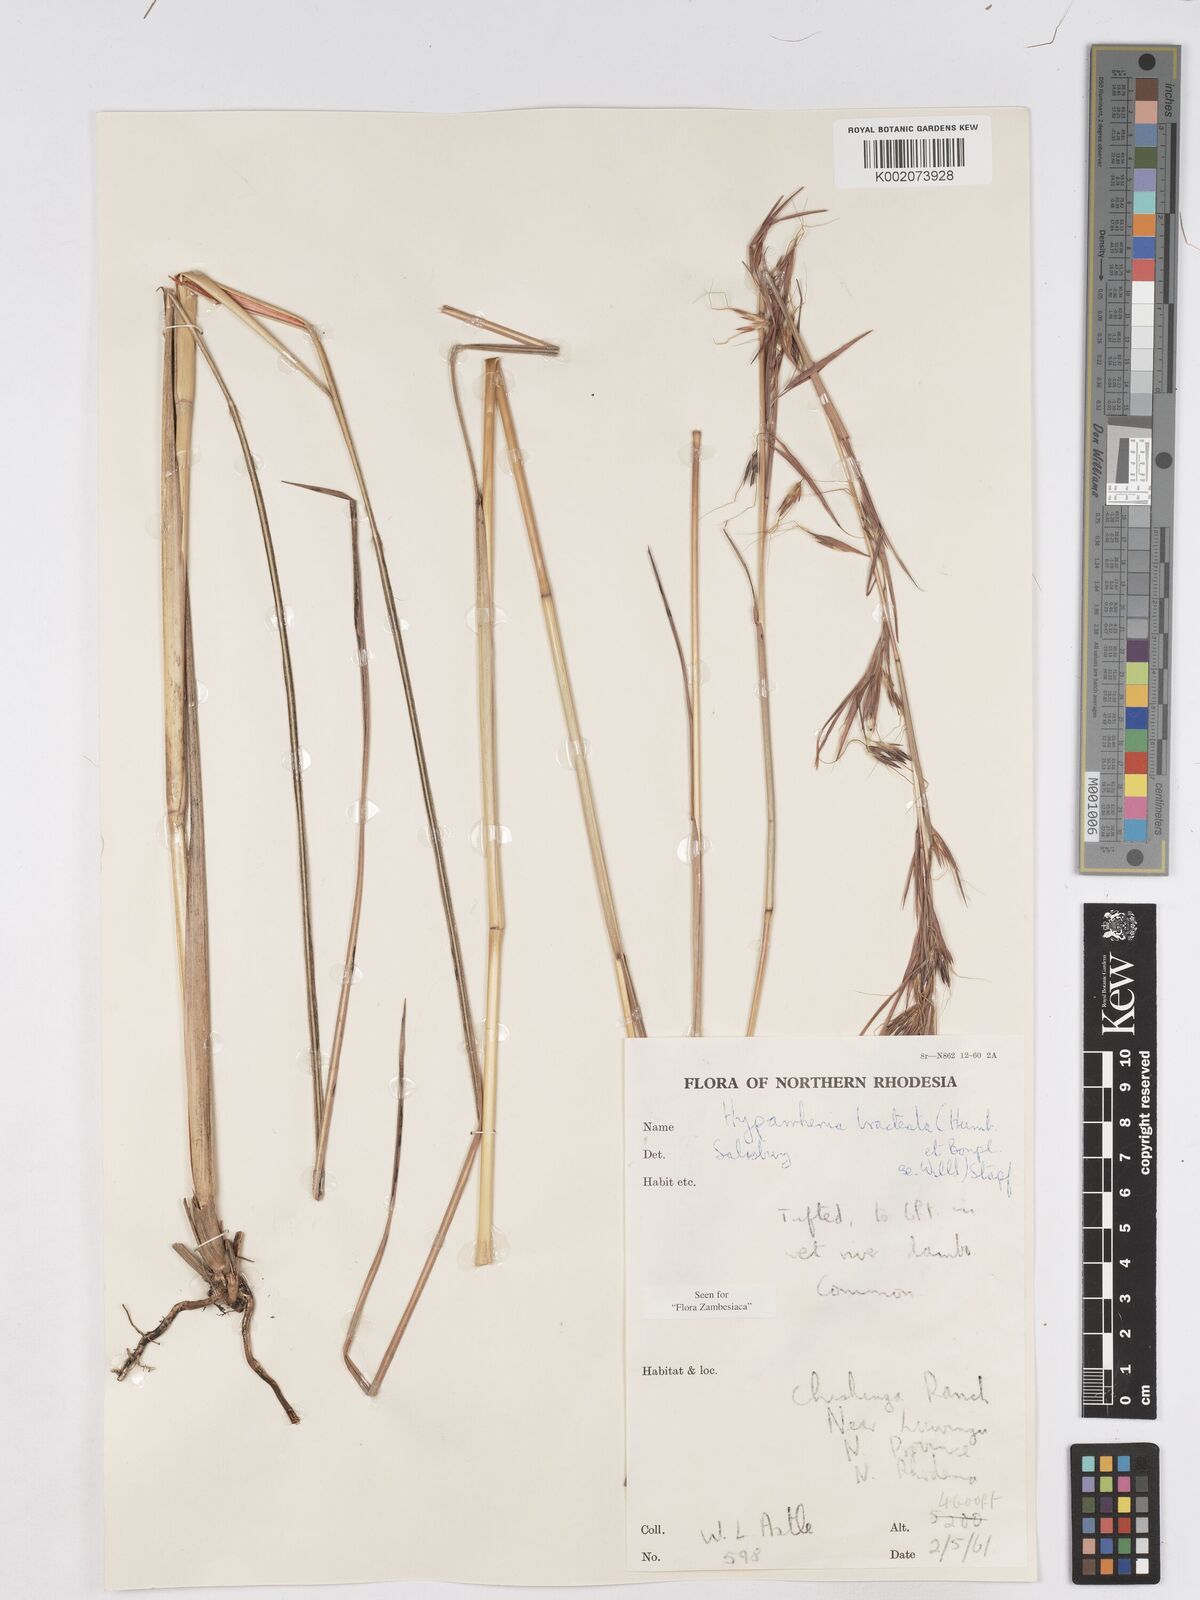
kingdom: Plantae
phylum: Tracheophyta
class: Liliopsida
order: Poales
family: Poaceae
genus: Hyparrhenia
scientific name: Hyparrhenia bracteata
